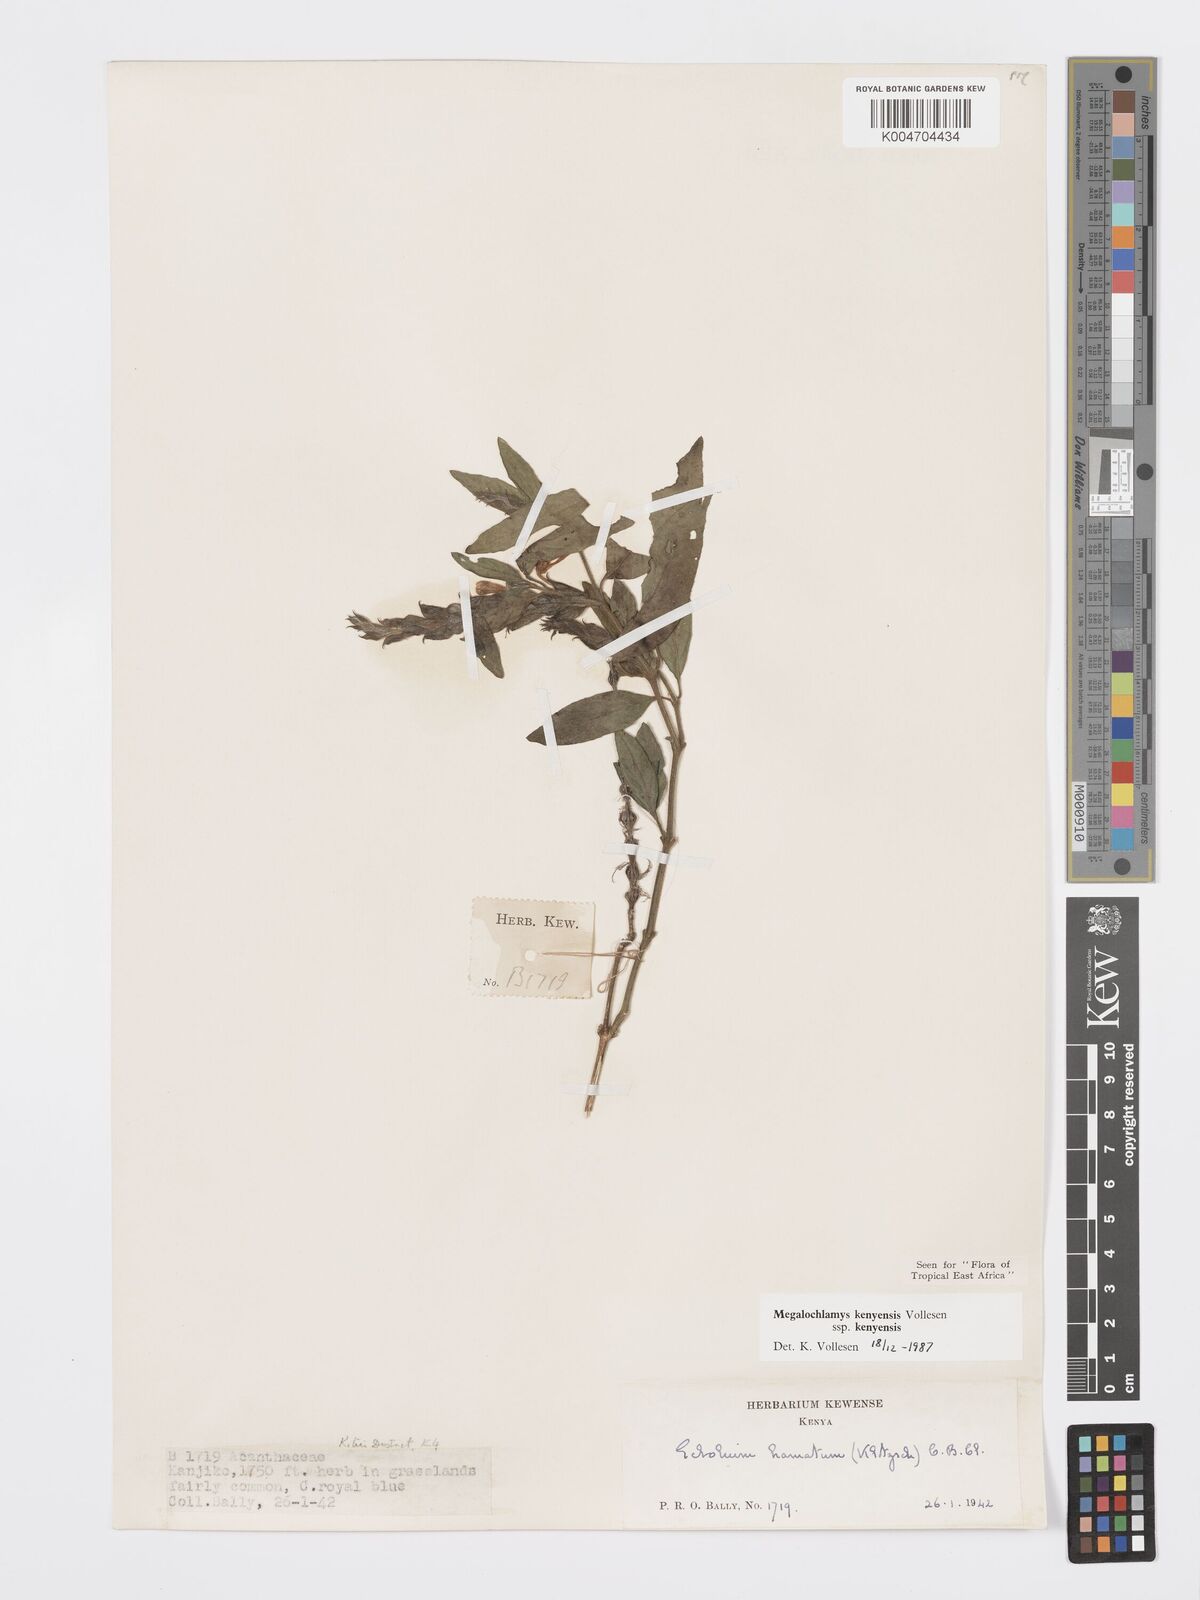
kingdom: Plantae
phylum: Tracheophyta
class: Magnoliopsida
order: Lamiales
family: Acanthaceae
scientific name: Acanthaceae
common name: Acanthaceae
